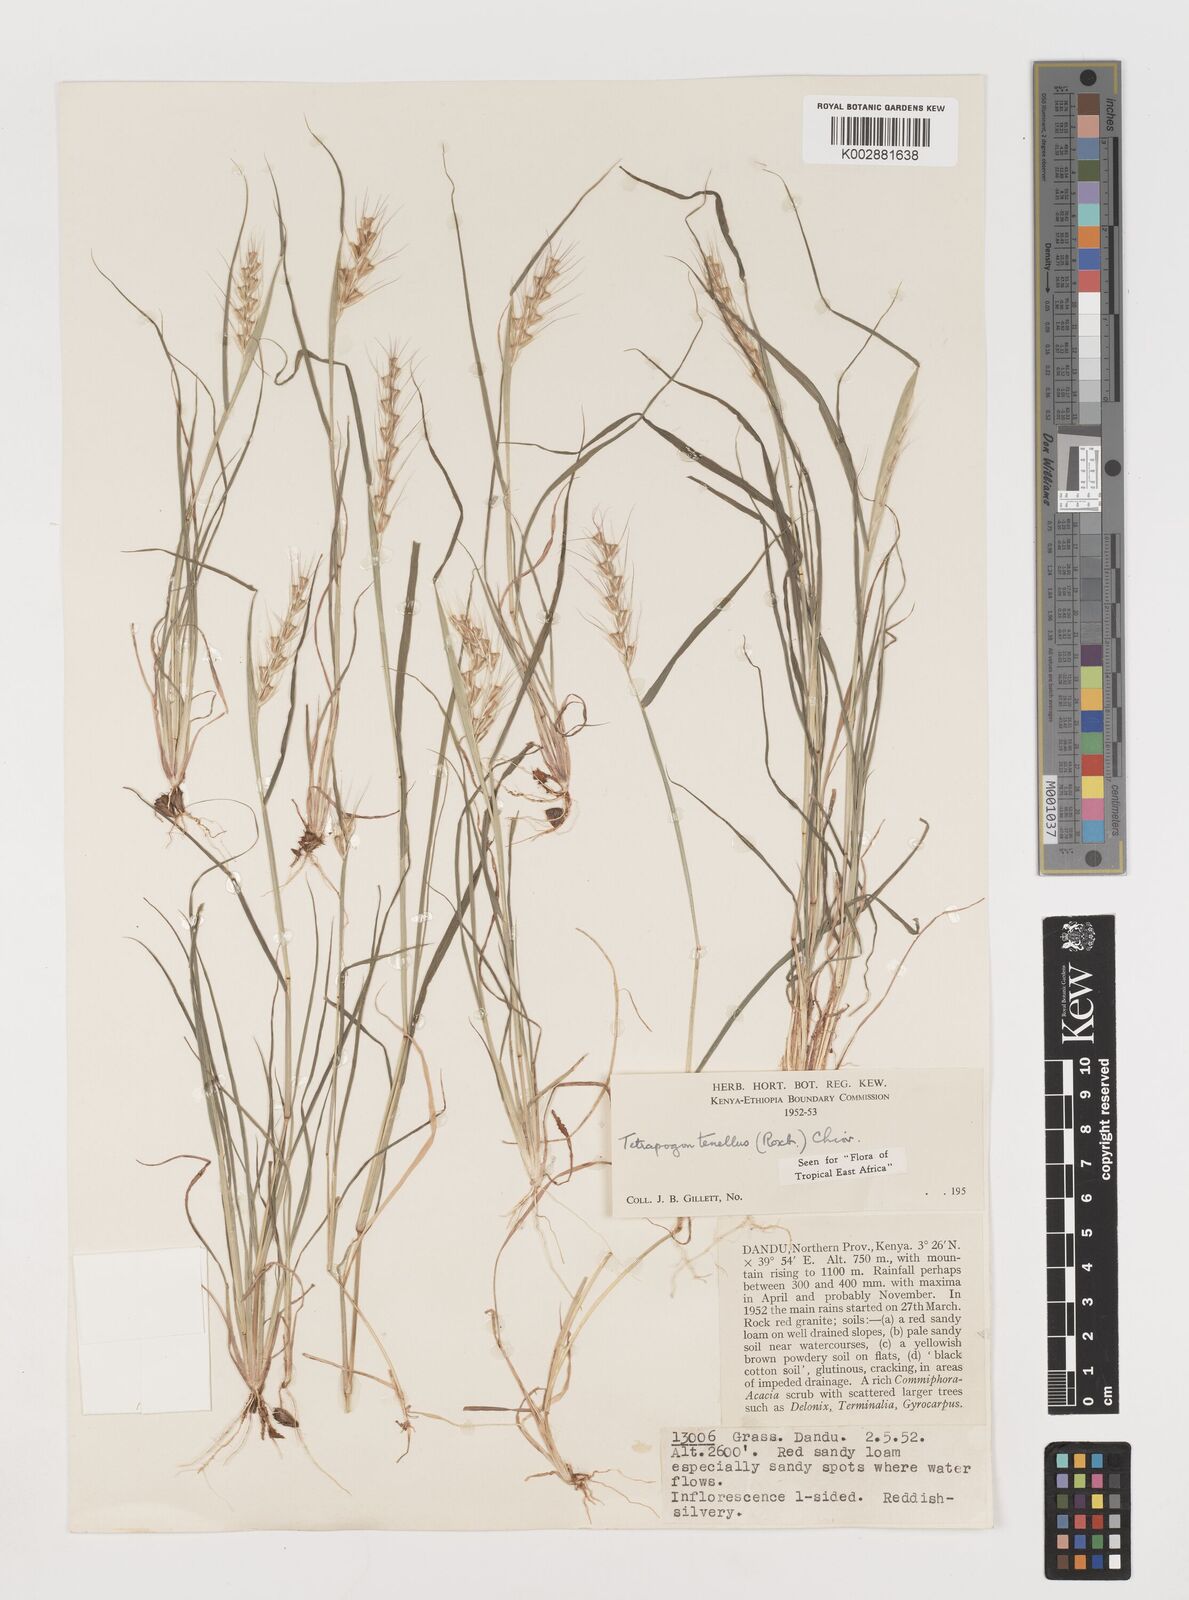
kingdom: Plantae
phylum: Tracheophyta
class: Liliopsida
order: Poales
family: Poaceae
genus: Tetrapogon
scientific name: Tetrapogon tenellus
